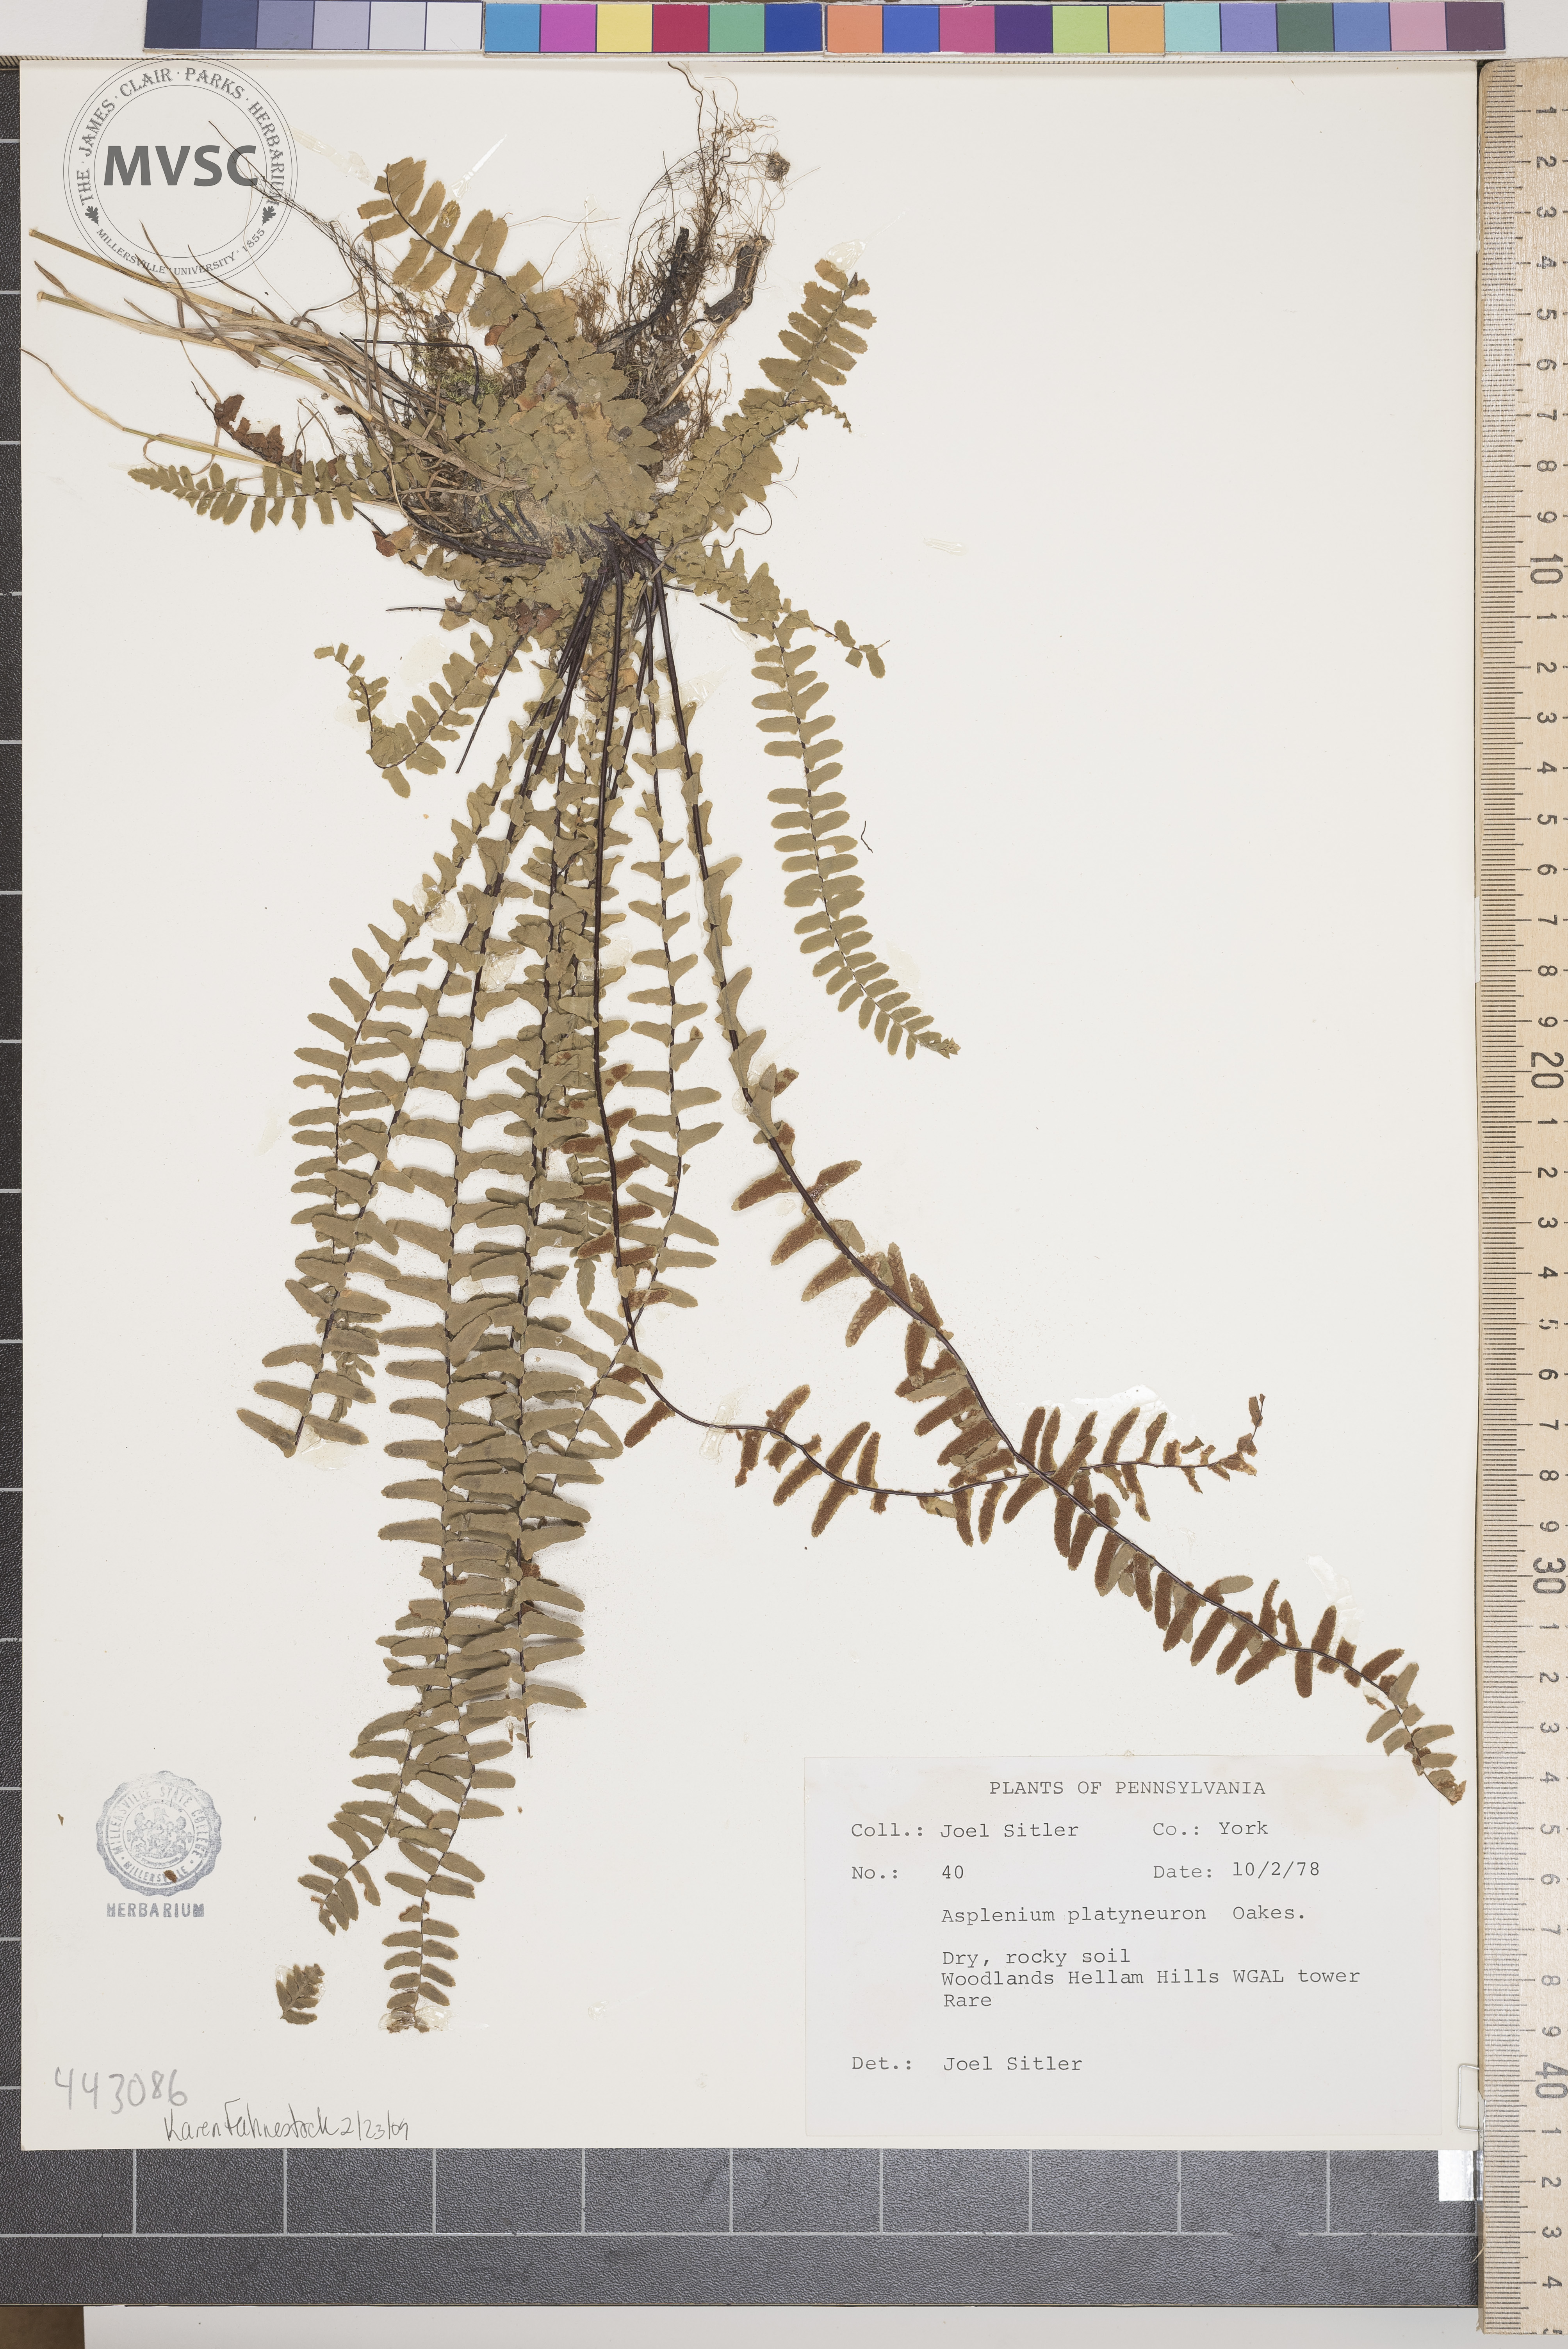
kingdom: Plantae
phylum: Tracheophyta
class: Polypodiopsida
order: Polypodiales
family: Aspleniaceae
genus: Asplenium
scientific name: Asplenium platyneuron
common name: Ebony spleenwort
